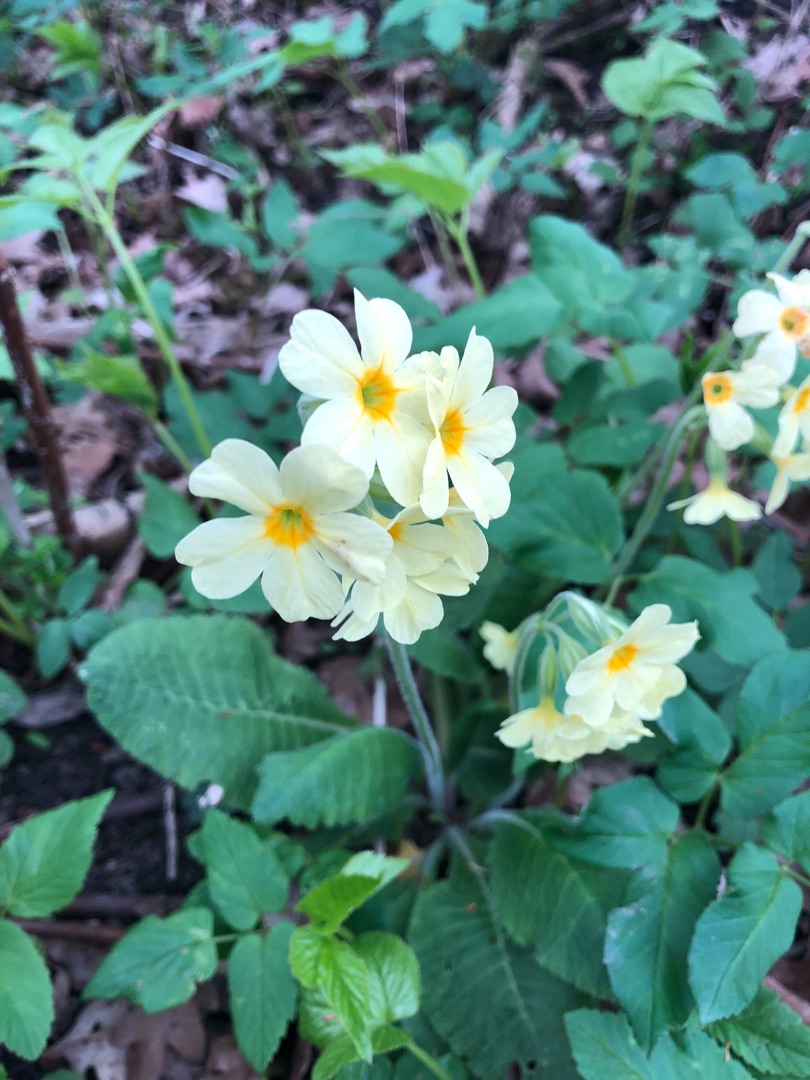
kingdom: Plantae
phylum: Tracheophyta
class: Magnoliopsida
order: Ericales
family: Primulaceae
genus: Primula
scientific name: Primula elatior
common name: Fladkravet kodriver
